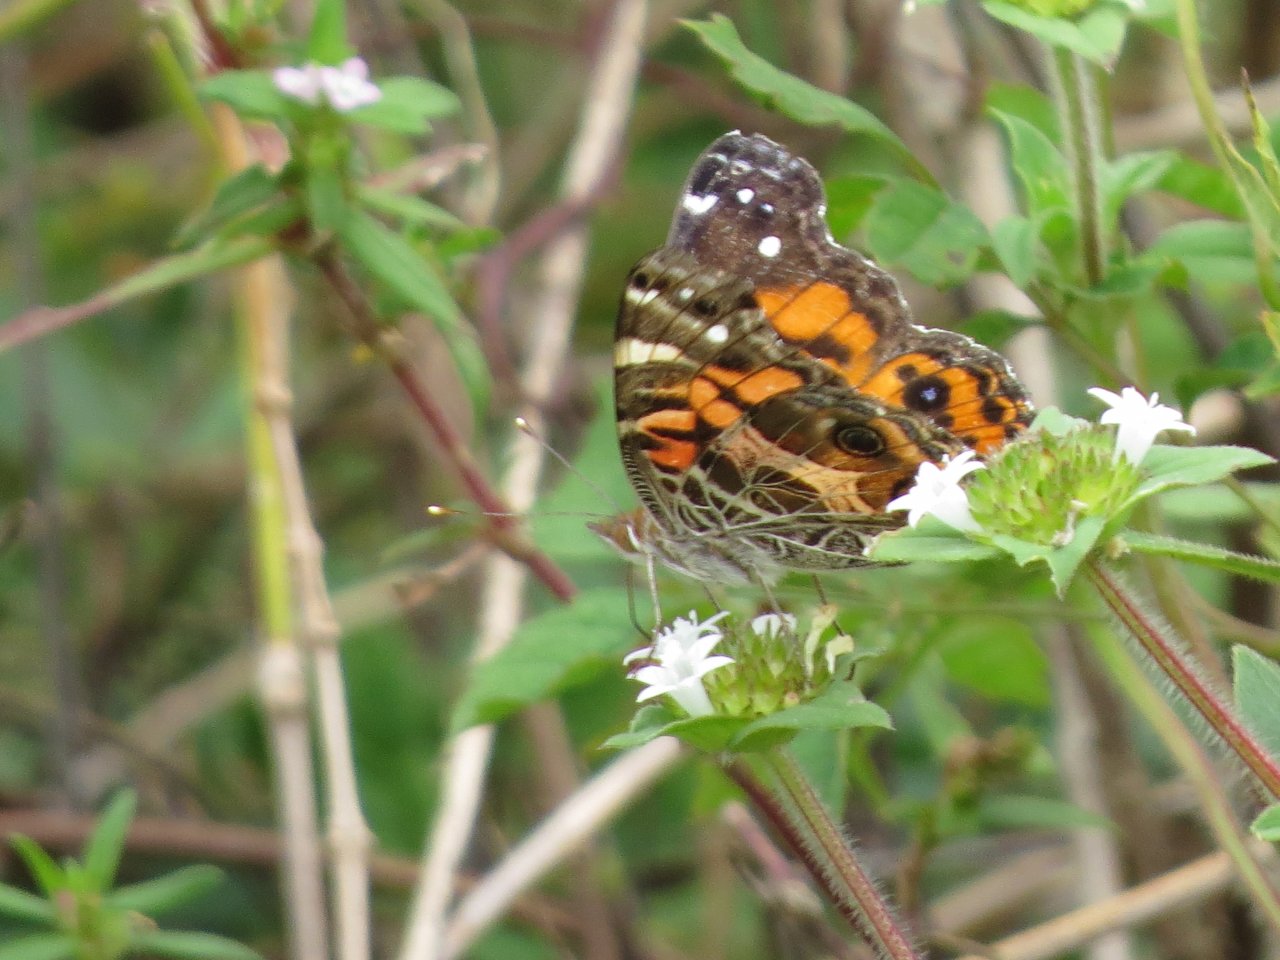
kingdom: Animalia
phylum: Arthropoda
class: Insecta
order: Lepidoptera
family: Nymphalidae
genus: Vanessa
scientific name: Vanessa virginiensis
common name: American Lady
